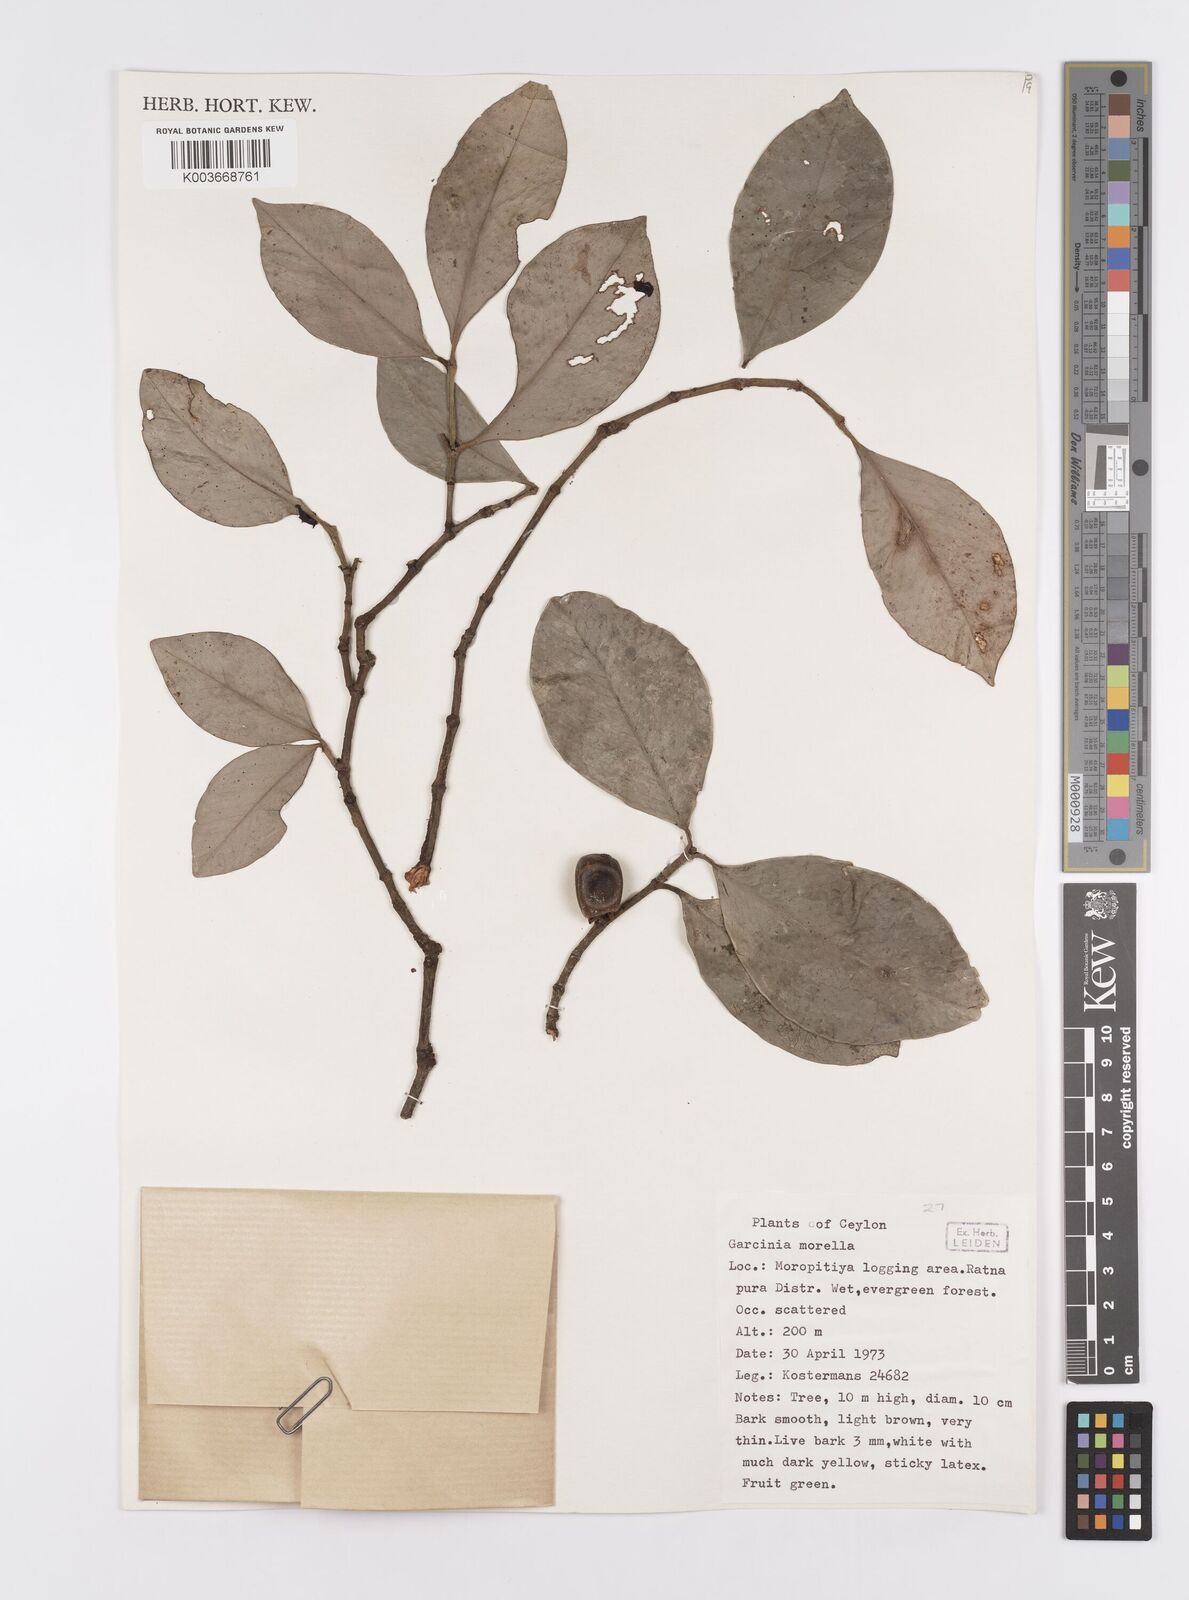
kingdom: Plantae
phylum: Tracheophyta
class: Magnoliopsida
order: Malpighiales
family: Clusiaceae
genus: Garcinia
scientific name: Garcinia morella
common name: Indian gamboge-tree
